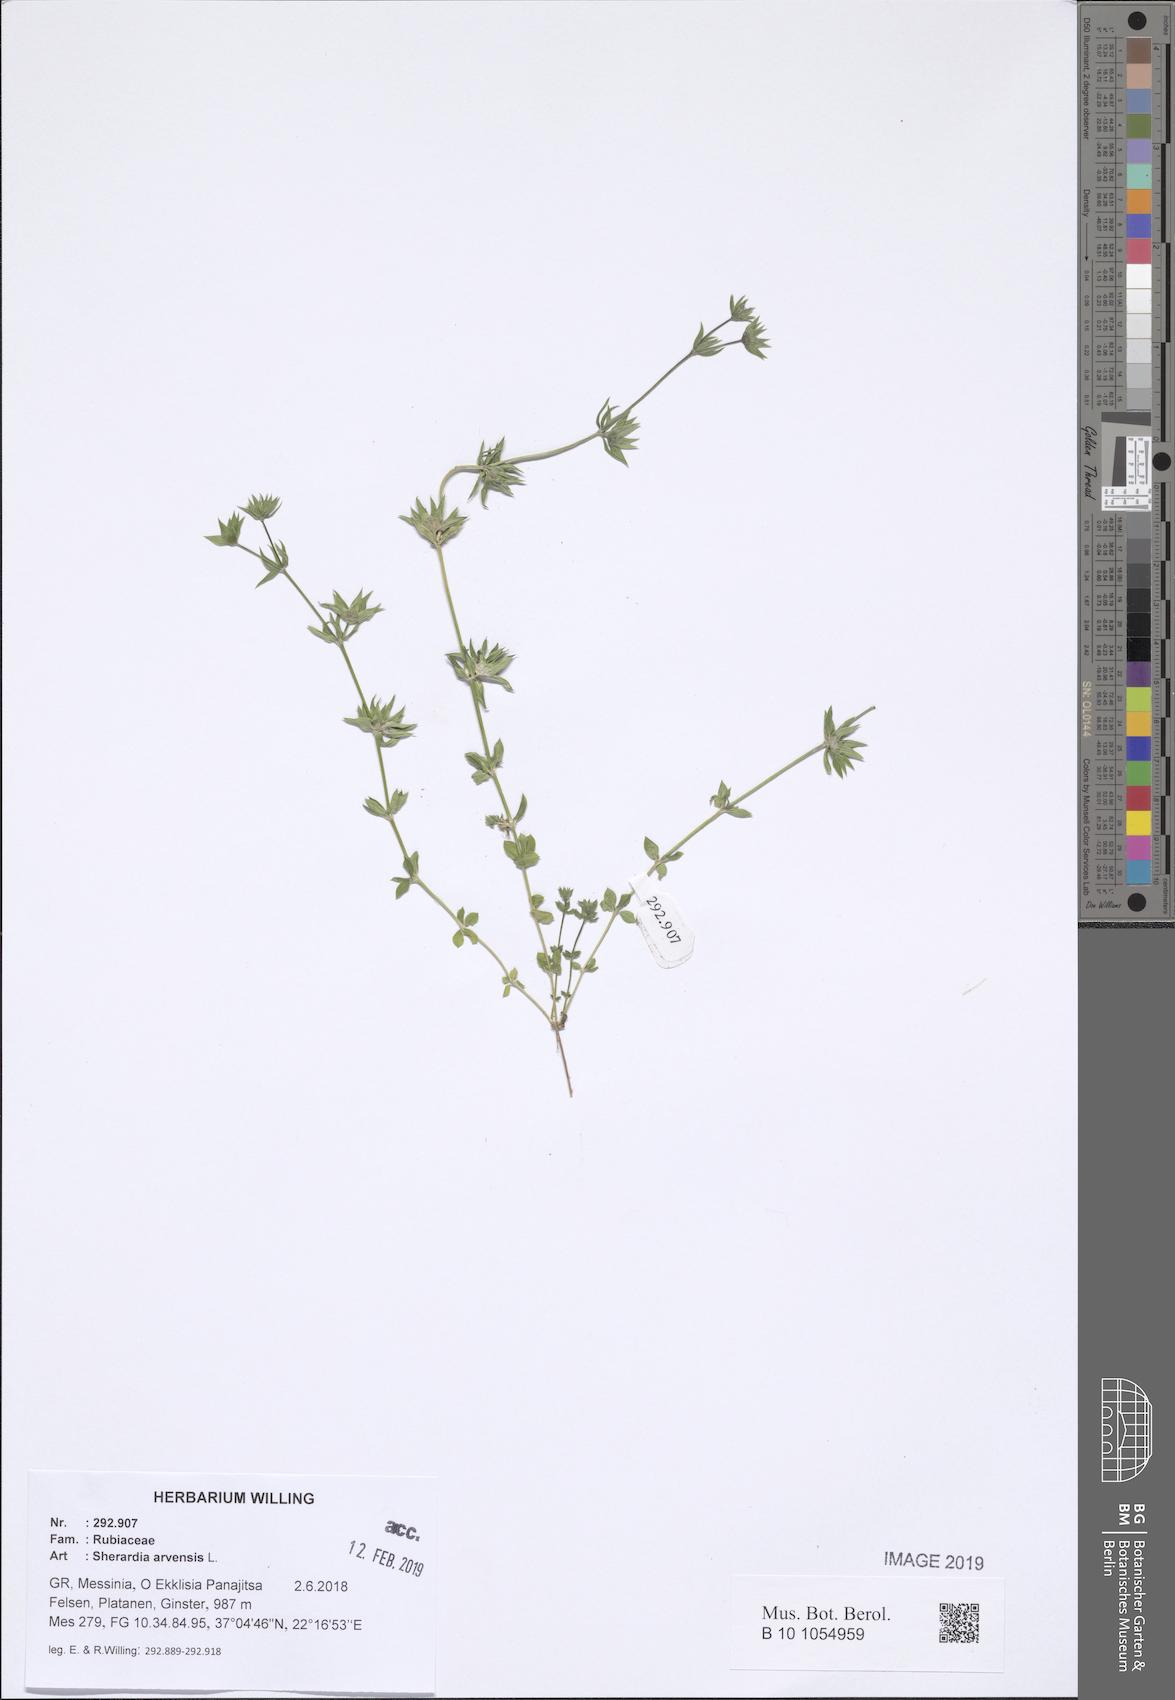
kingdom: Plantae
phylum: Tracheophyta
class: Magnoliopsida
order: Gentianales
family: Rubiaceae
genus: Sherardia
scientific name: Sherardia arvensis
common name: Field madder
